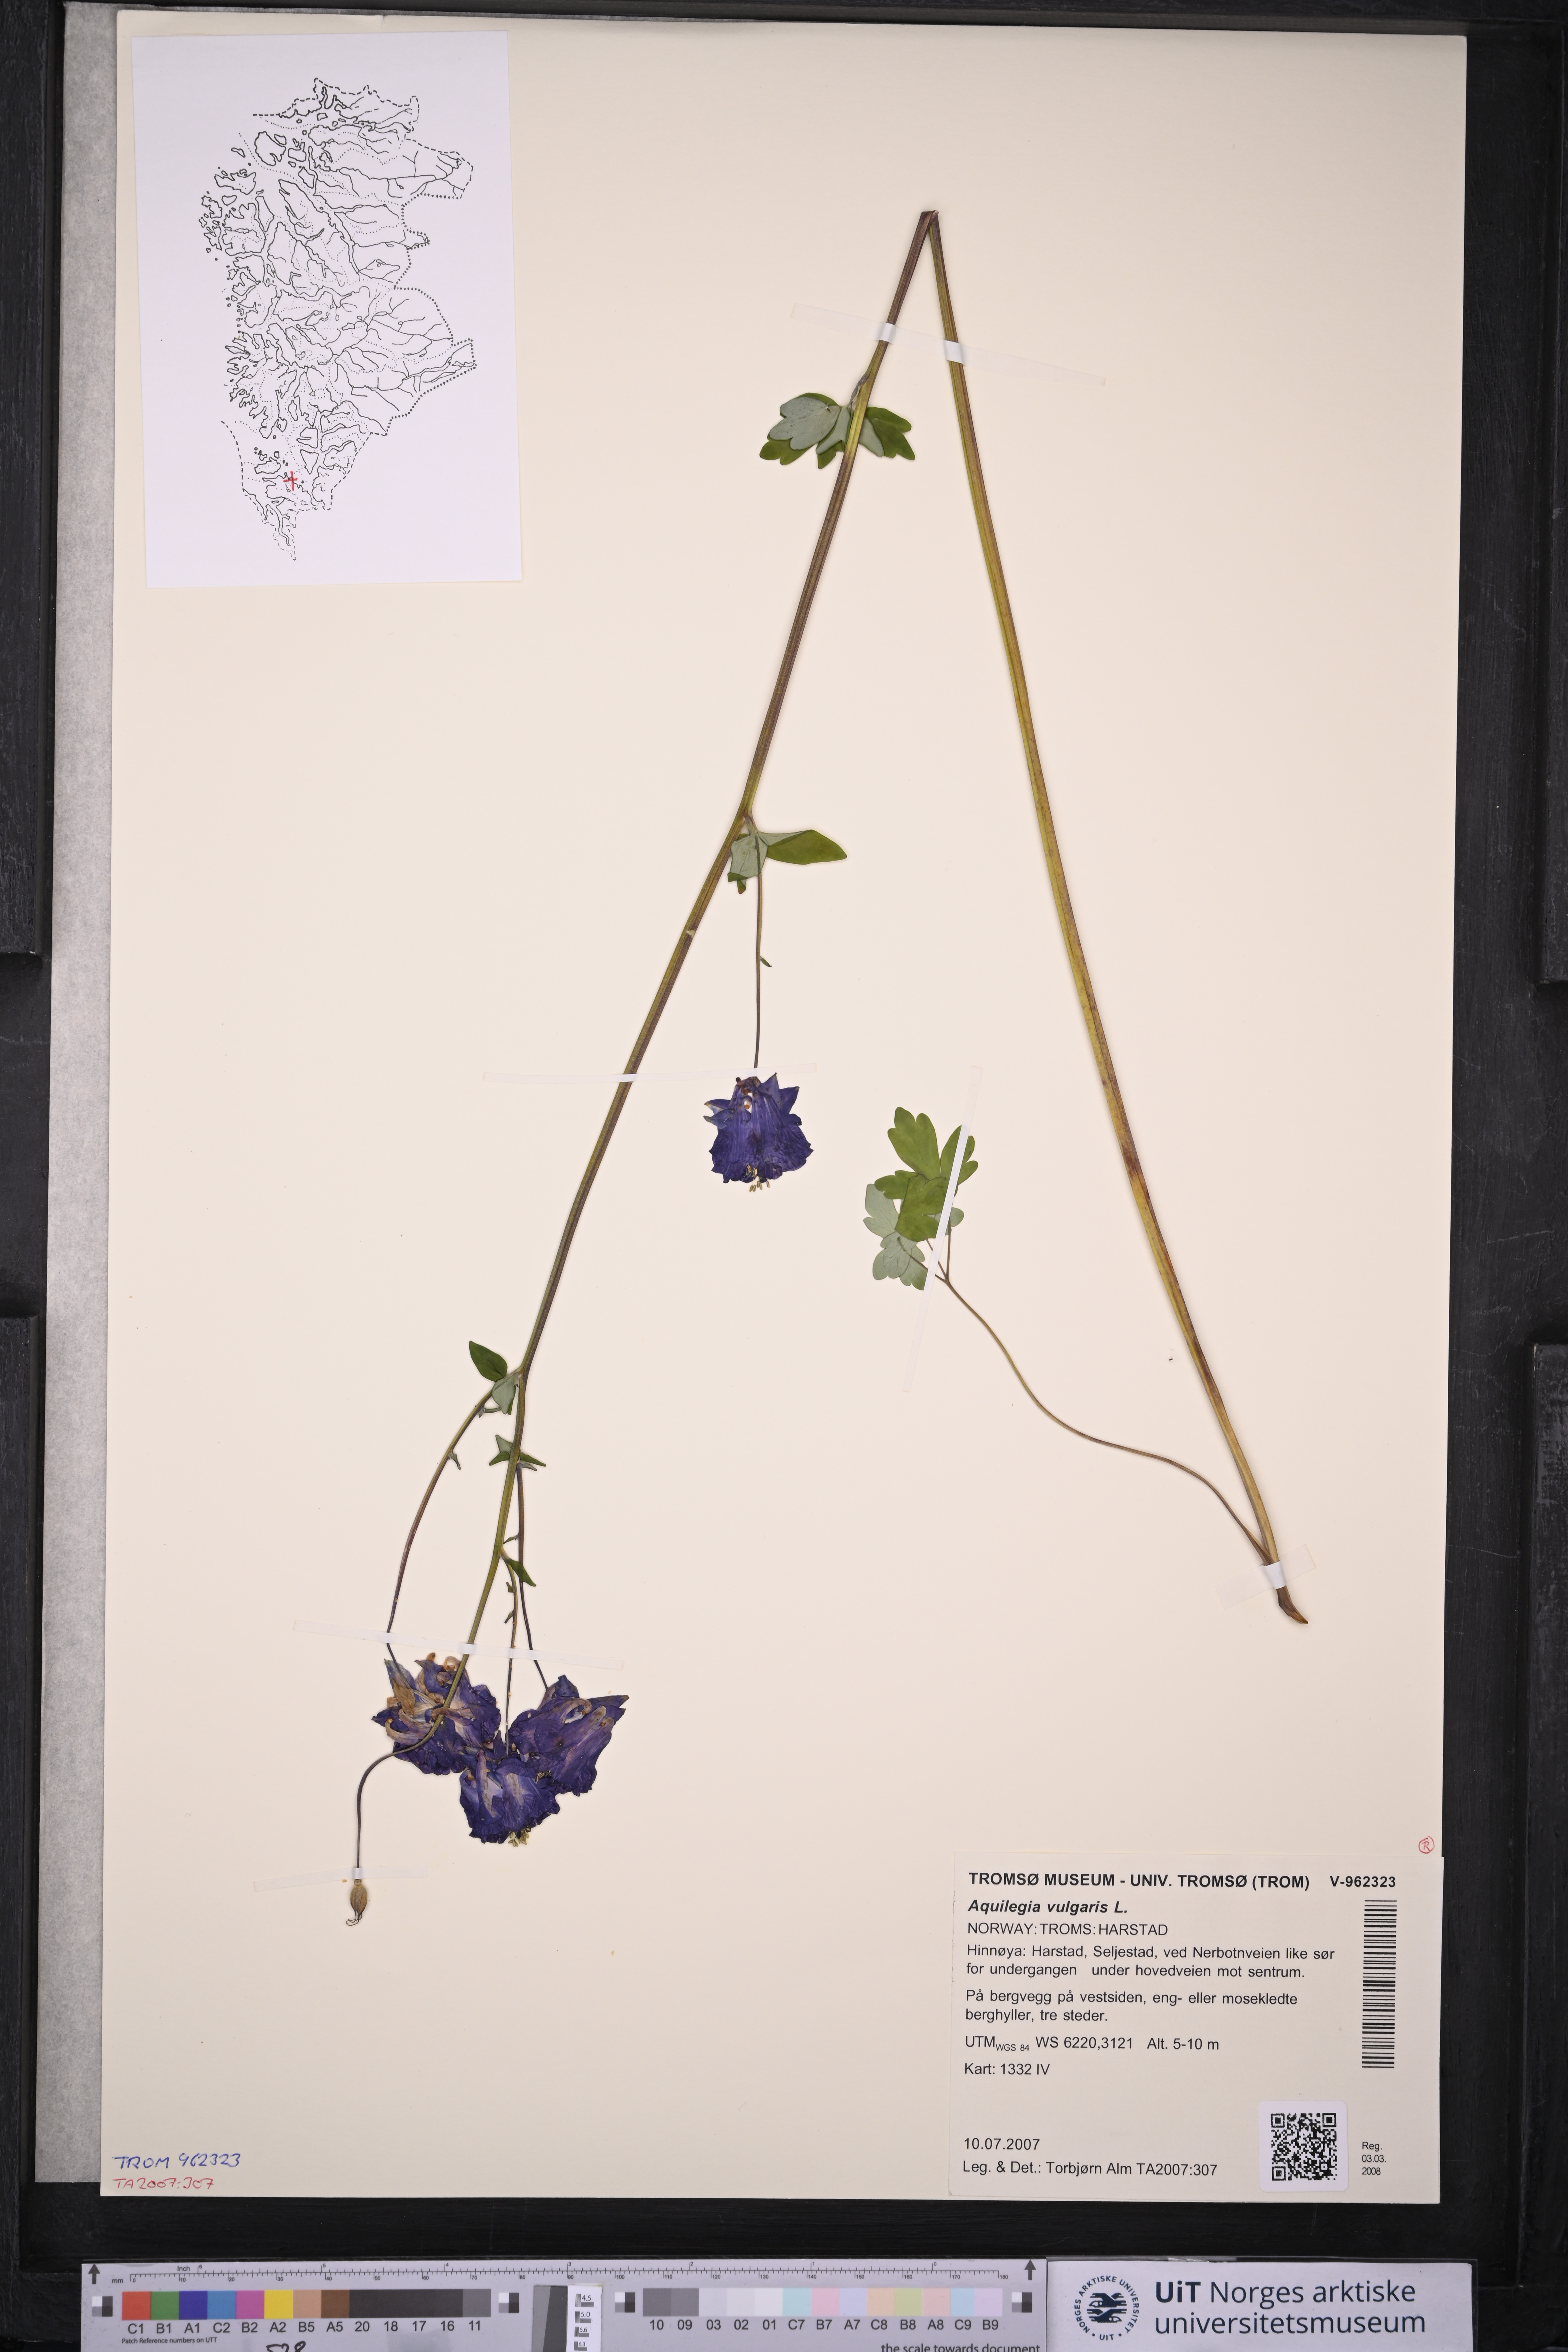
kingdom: Plantae
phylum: Tracheophyta
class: Magnoliopsida
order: Ranunculales
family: Ranunculaceae
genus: Aquilegia
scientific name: Aquilegia vulgaris
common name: Columbine
